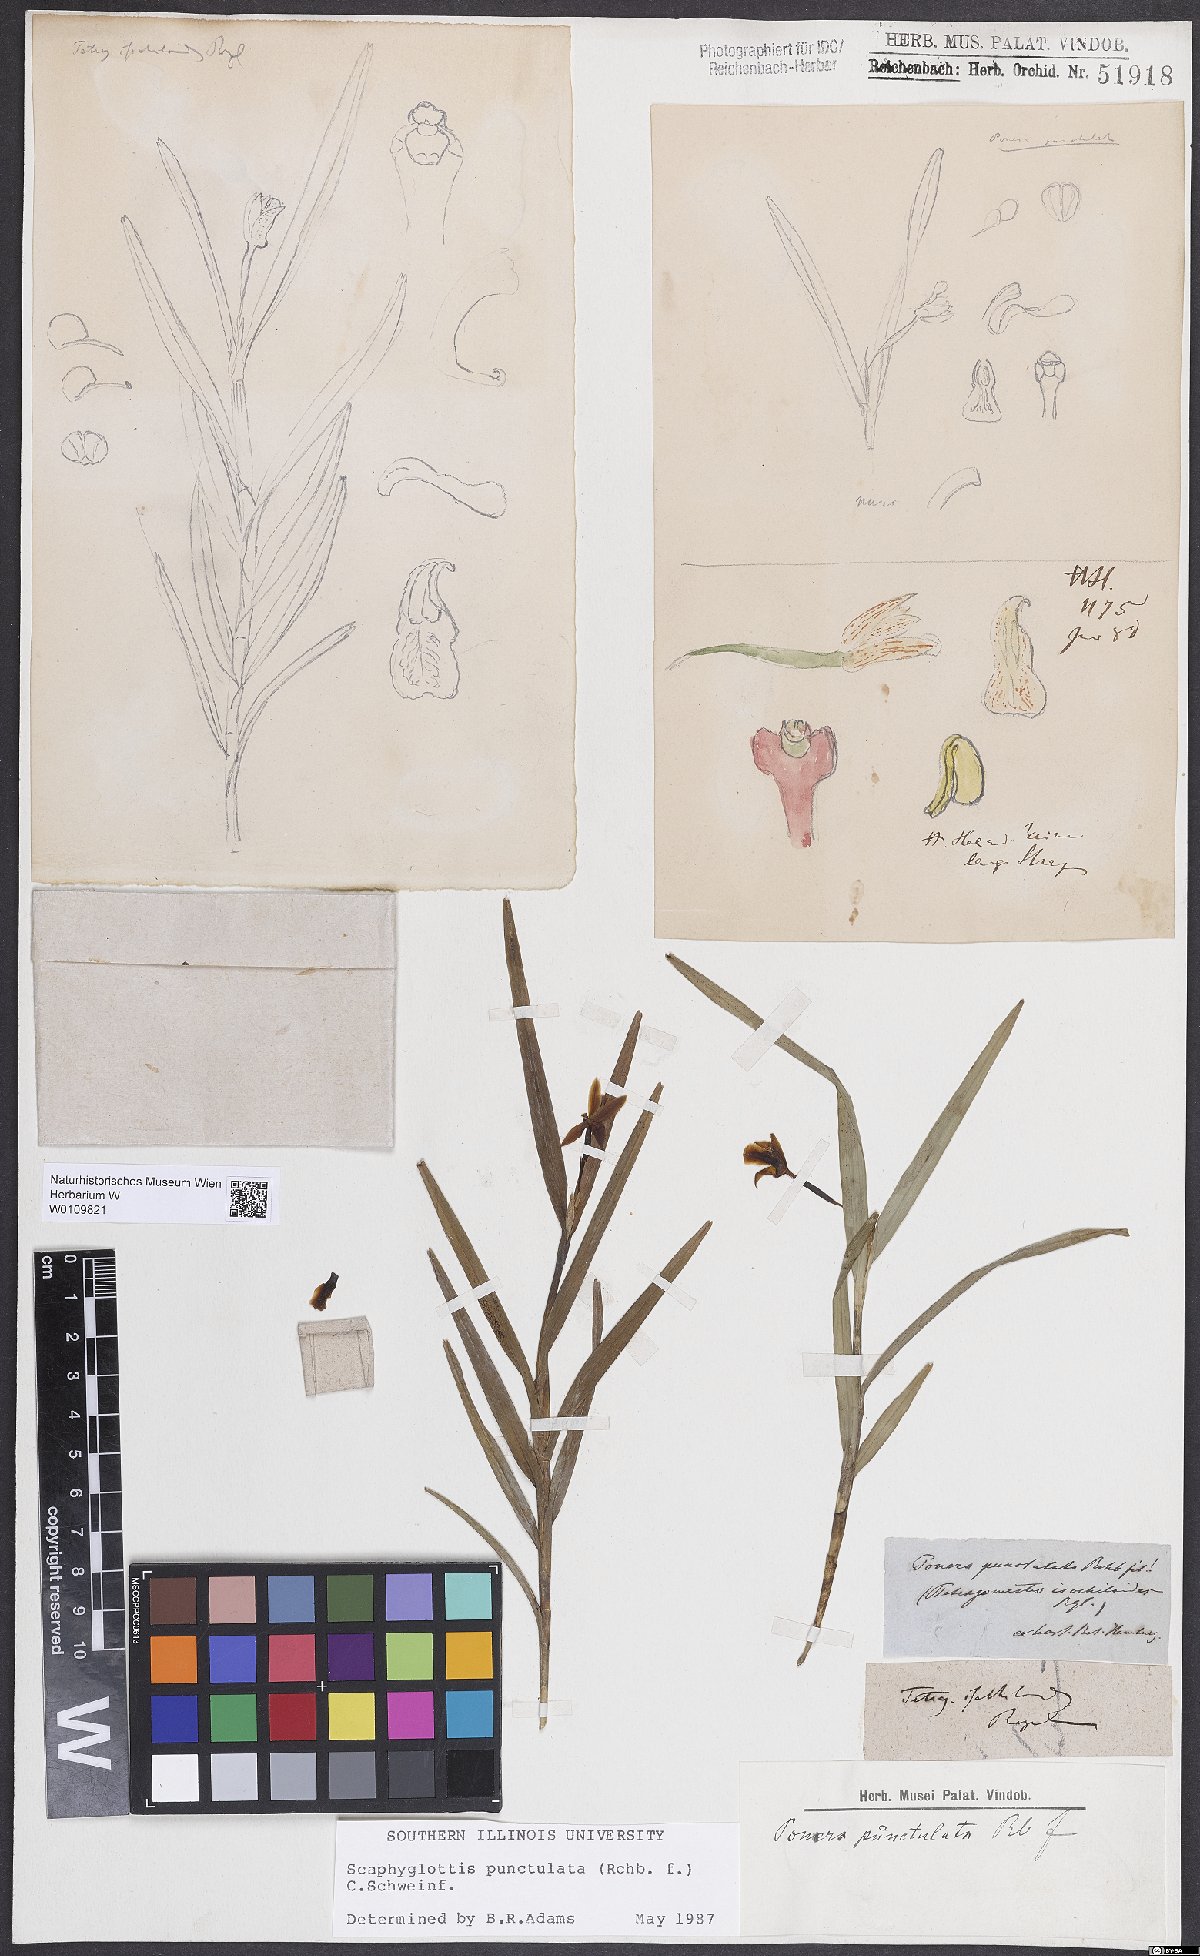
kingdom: Plantae
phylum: Tracheophyta
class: Liliopsida
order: Asparagales
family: Orchidaceae
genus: Scaphyglottis
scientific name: Scaphyglottis punctulata
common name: Dotted orchid
